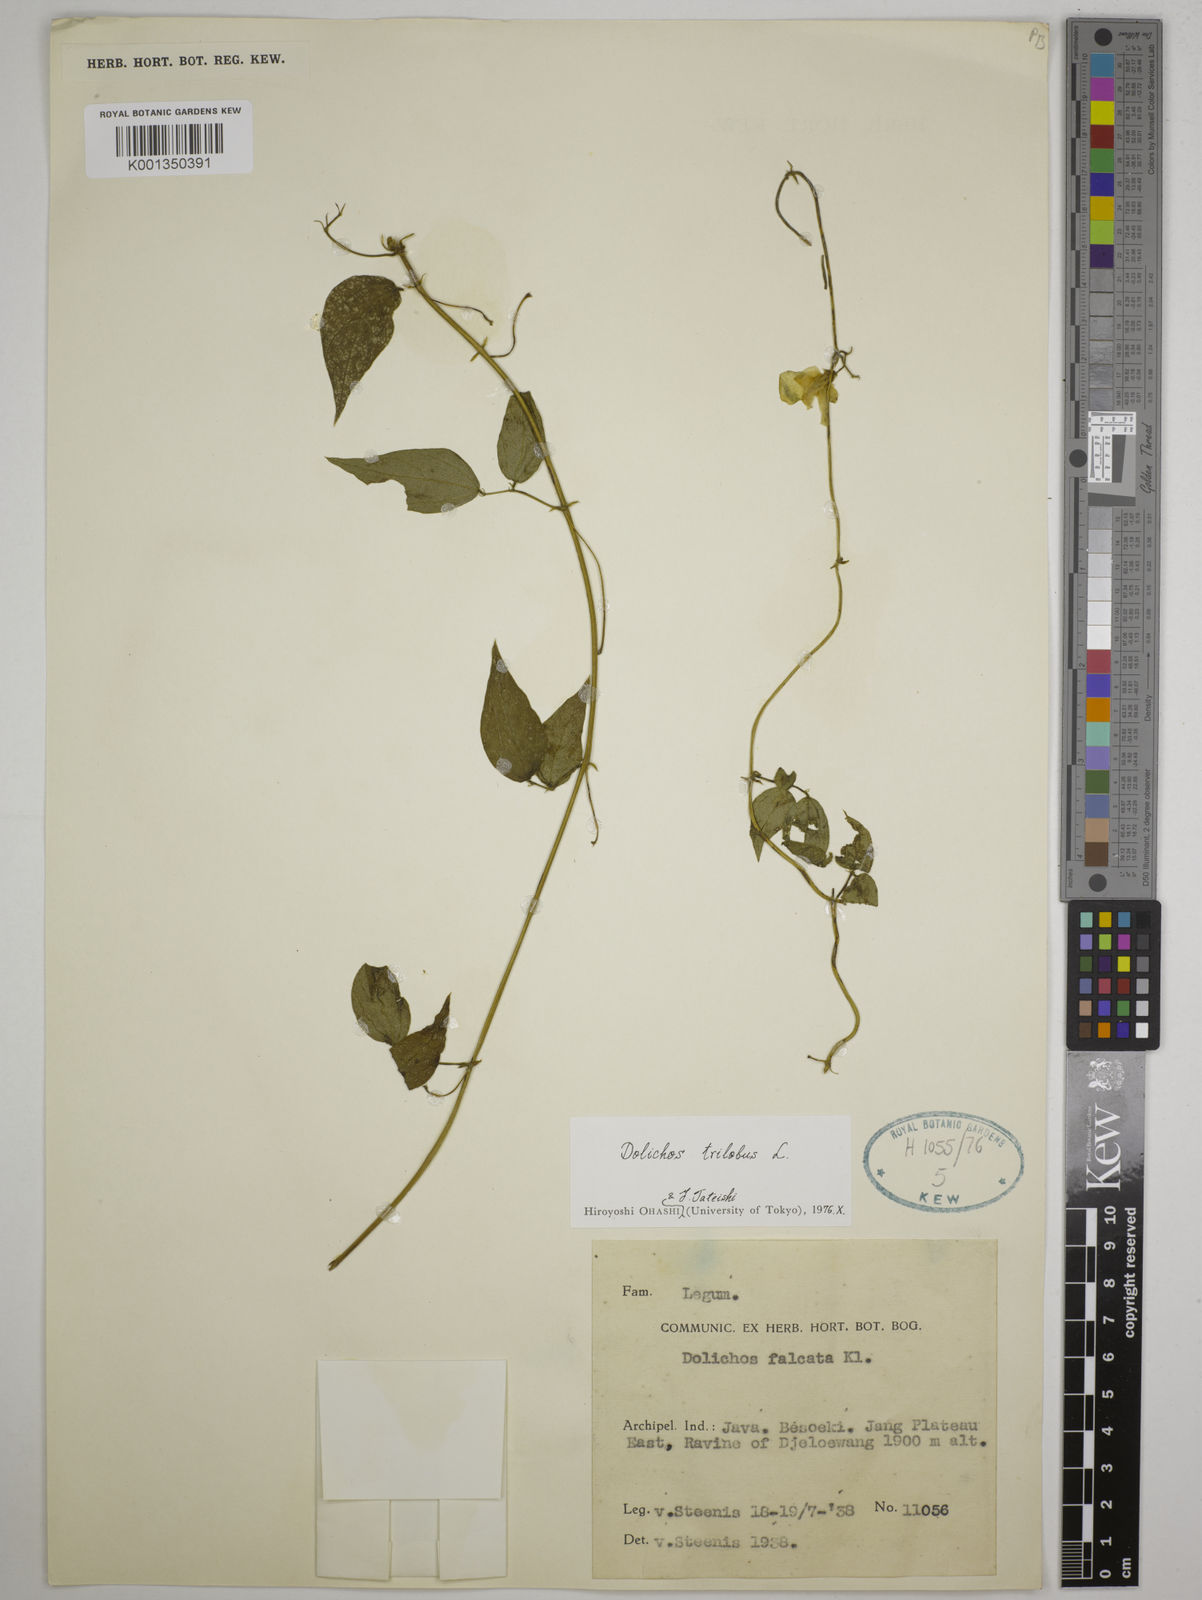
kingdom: Plantae
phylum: Tracheophyta
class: Magnoliopsida
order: Fabales
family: Fabaceae
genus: Dolichos
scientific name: Dolichos
